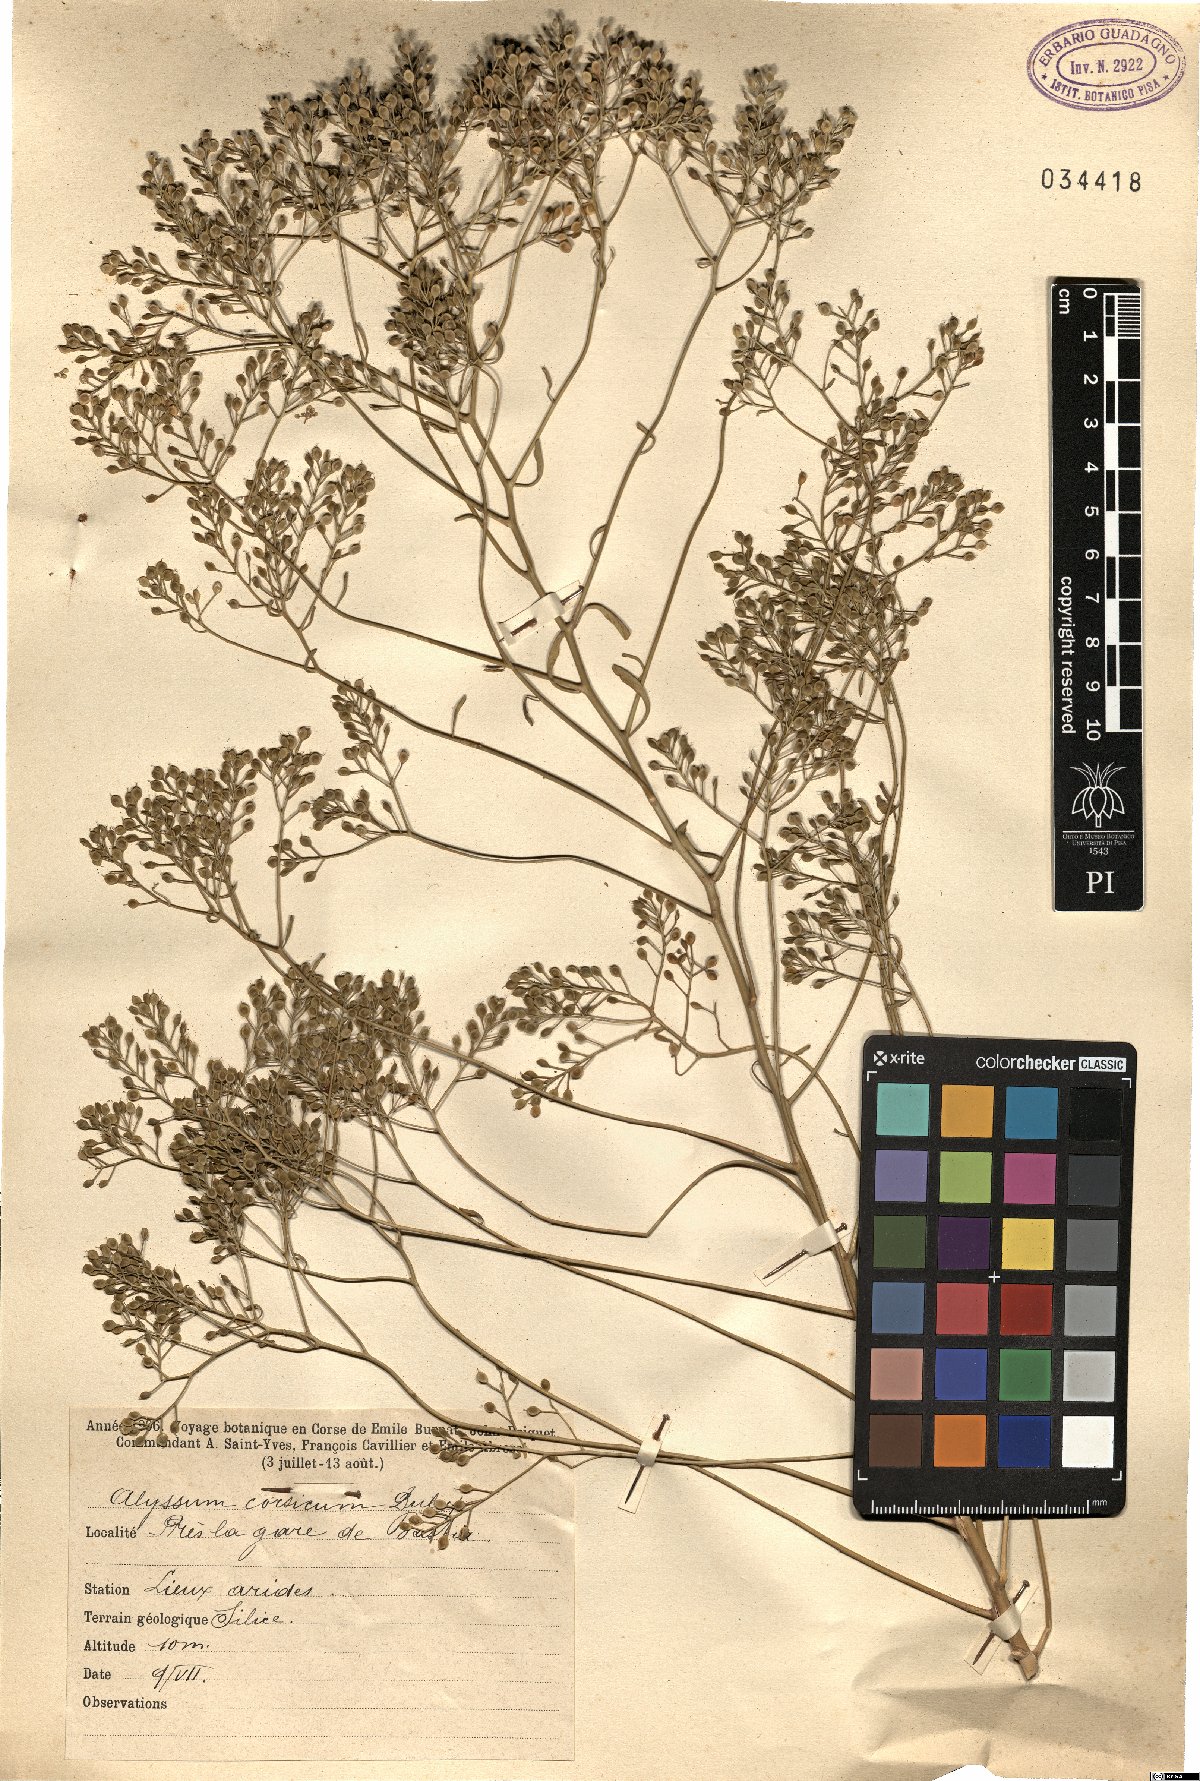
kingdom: Plantae
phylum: Tracheophyta
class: Magnoliopsida
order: Brassicales
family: Brassicaceae
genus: Odontarrhena
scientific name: Odontarrhena corsica
